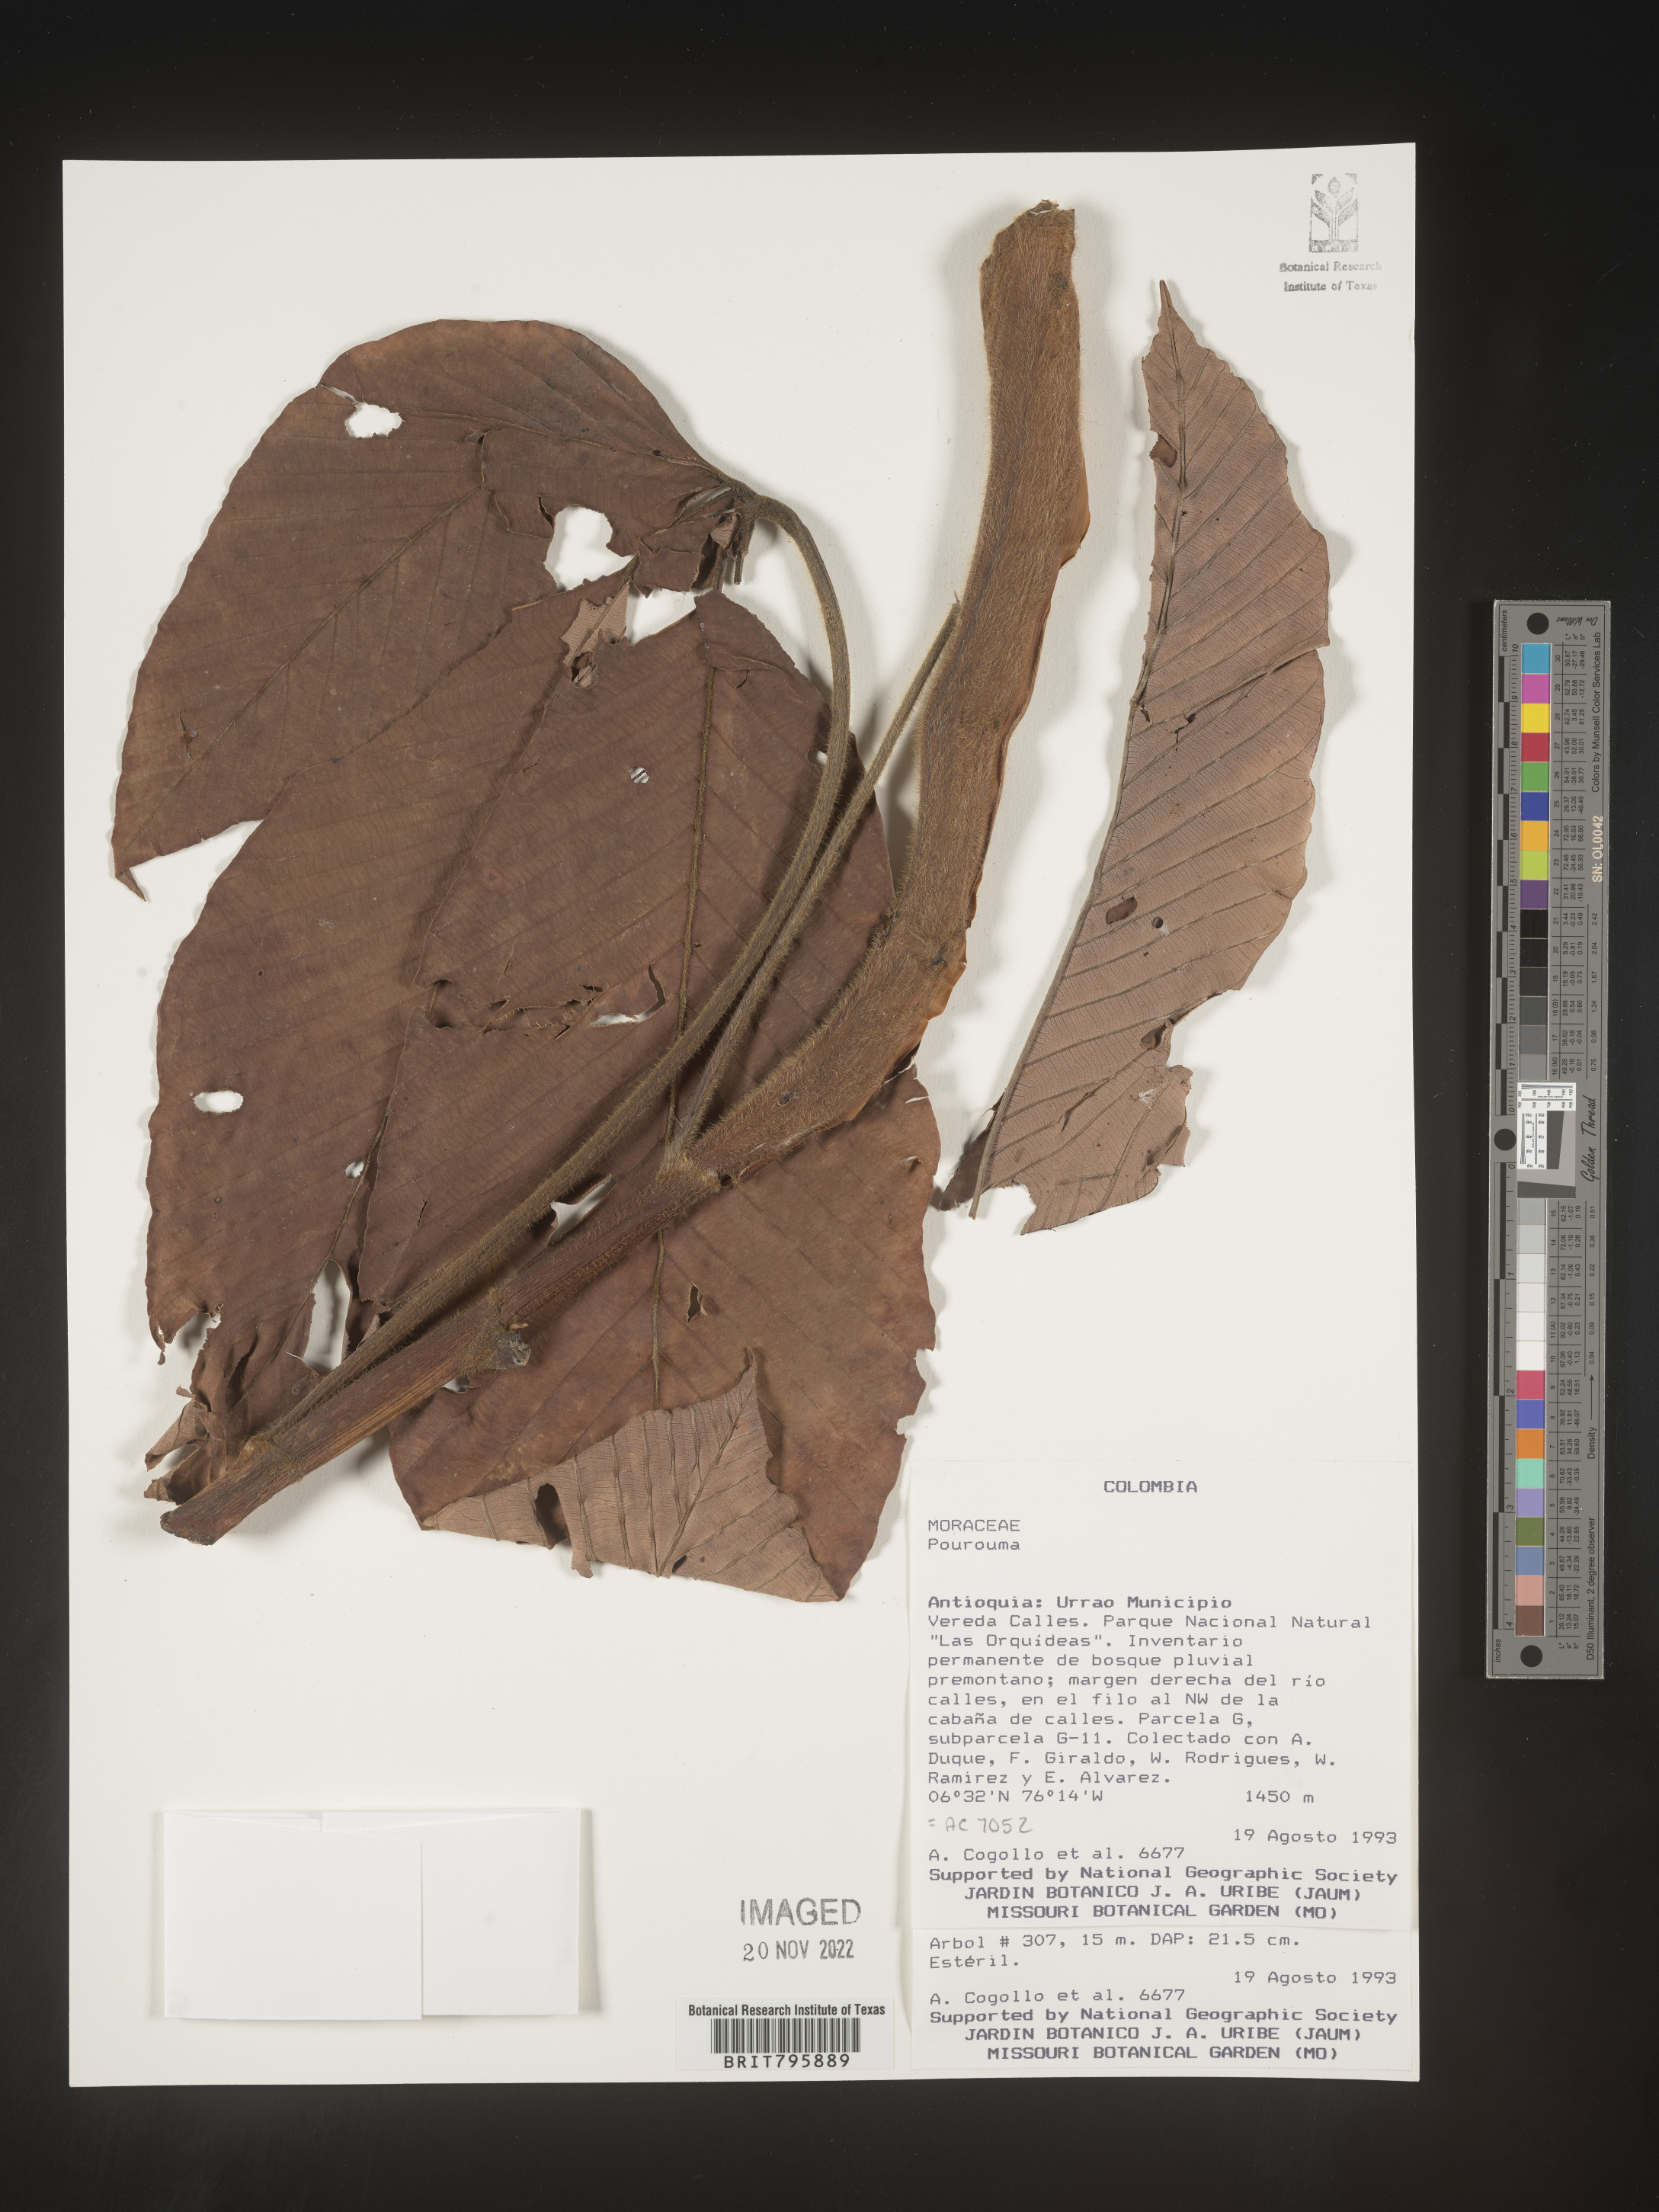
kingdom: Plantae
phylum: Tracheophyta
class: Magnoliopsida
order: Rosales
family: Urticaceae
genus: Pourouma
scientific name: Pourouma
